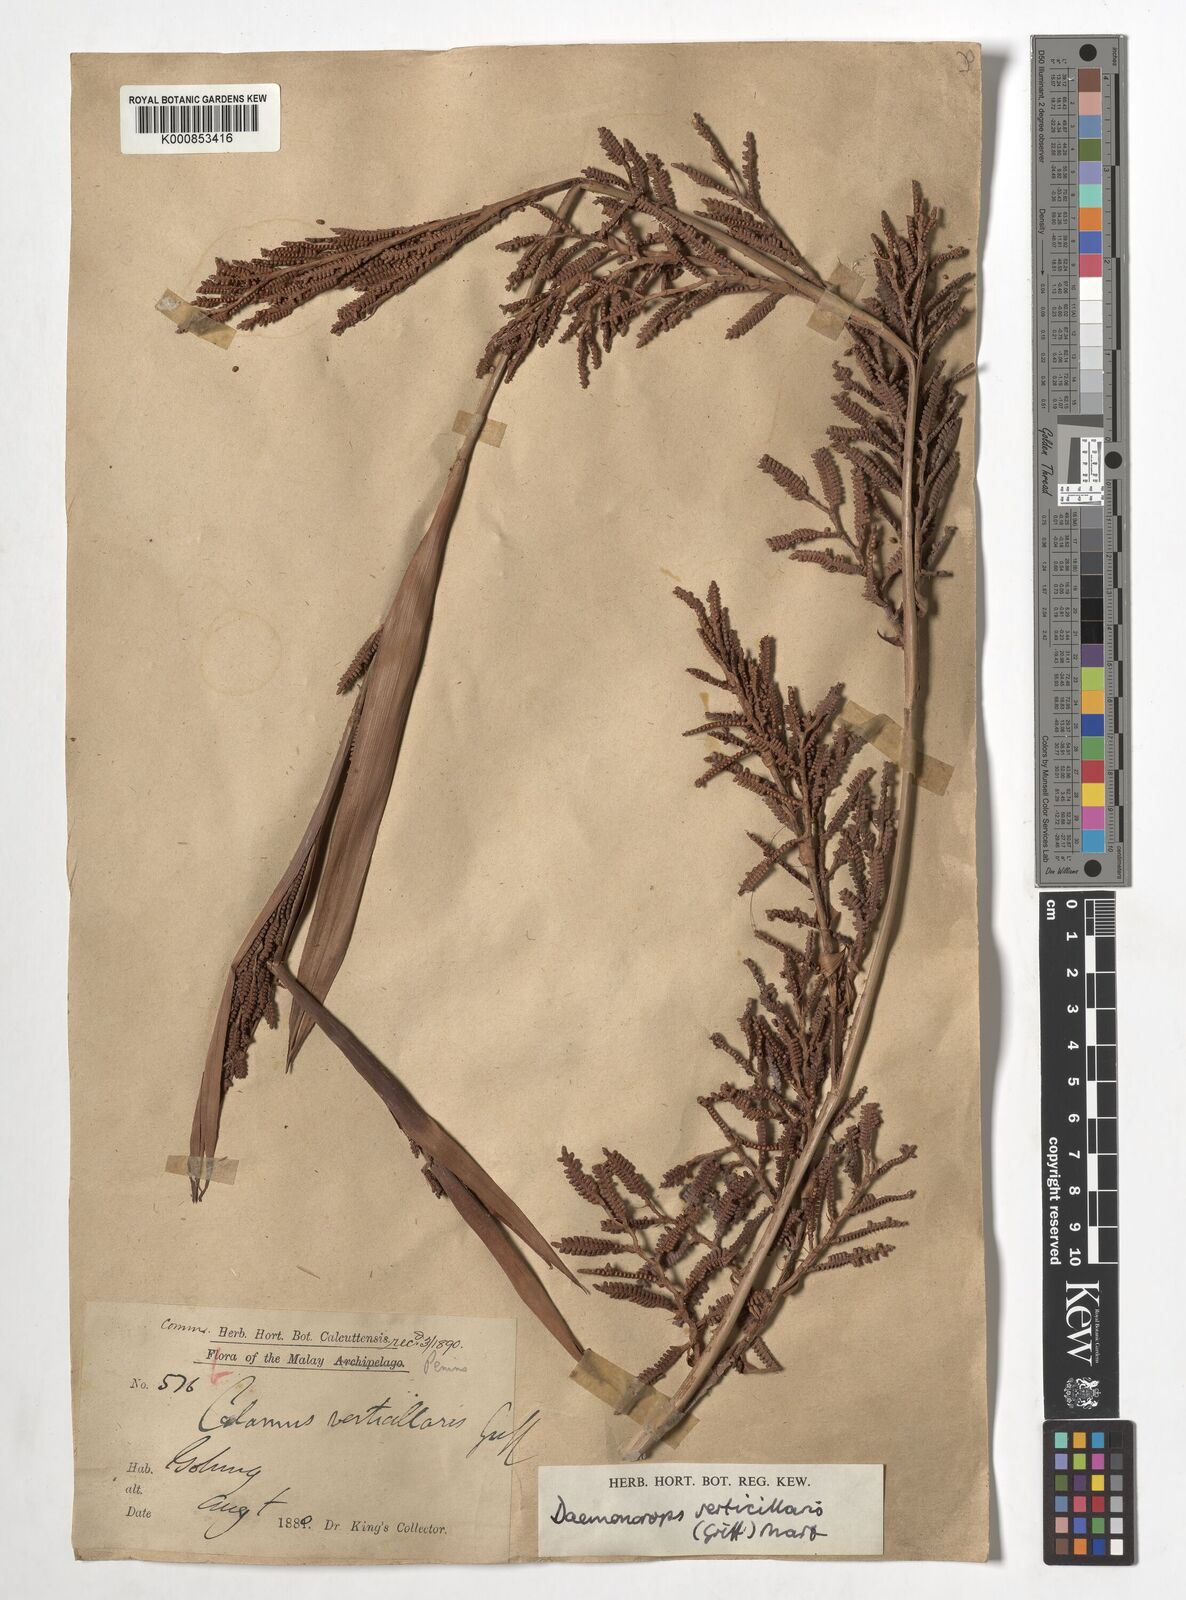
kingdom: Plantae
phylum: Tracheophyta
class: Liliopsida
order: Arecales
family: Arecaceae
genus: Calamus
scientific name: Calamus verticillaris
